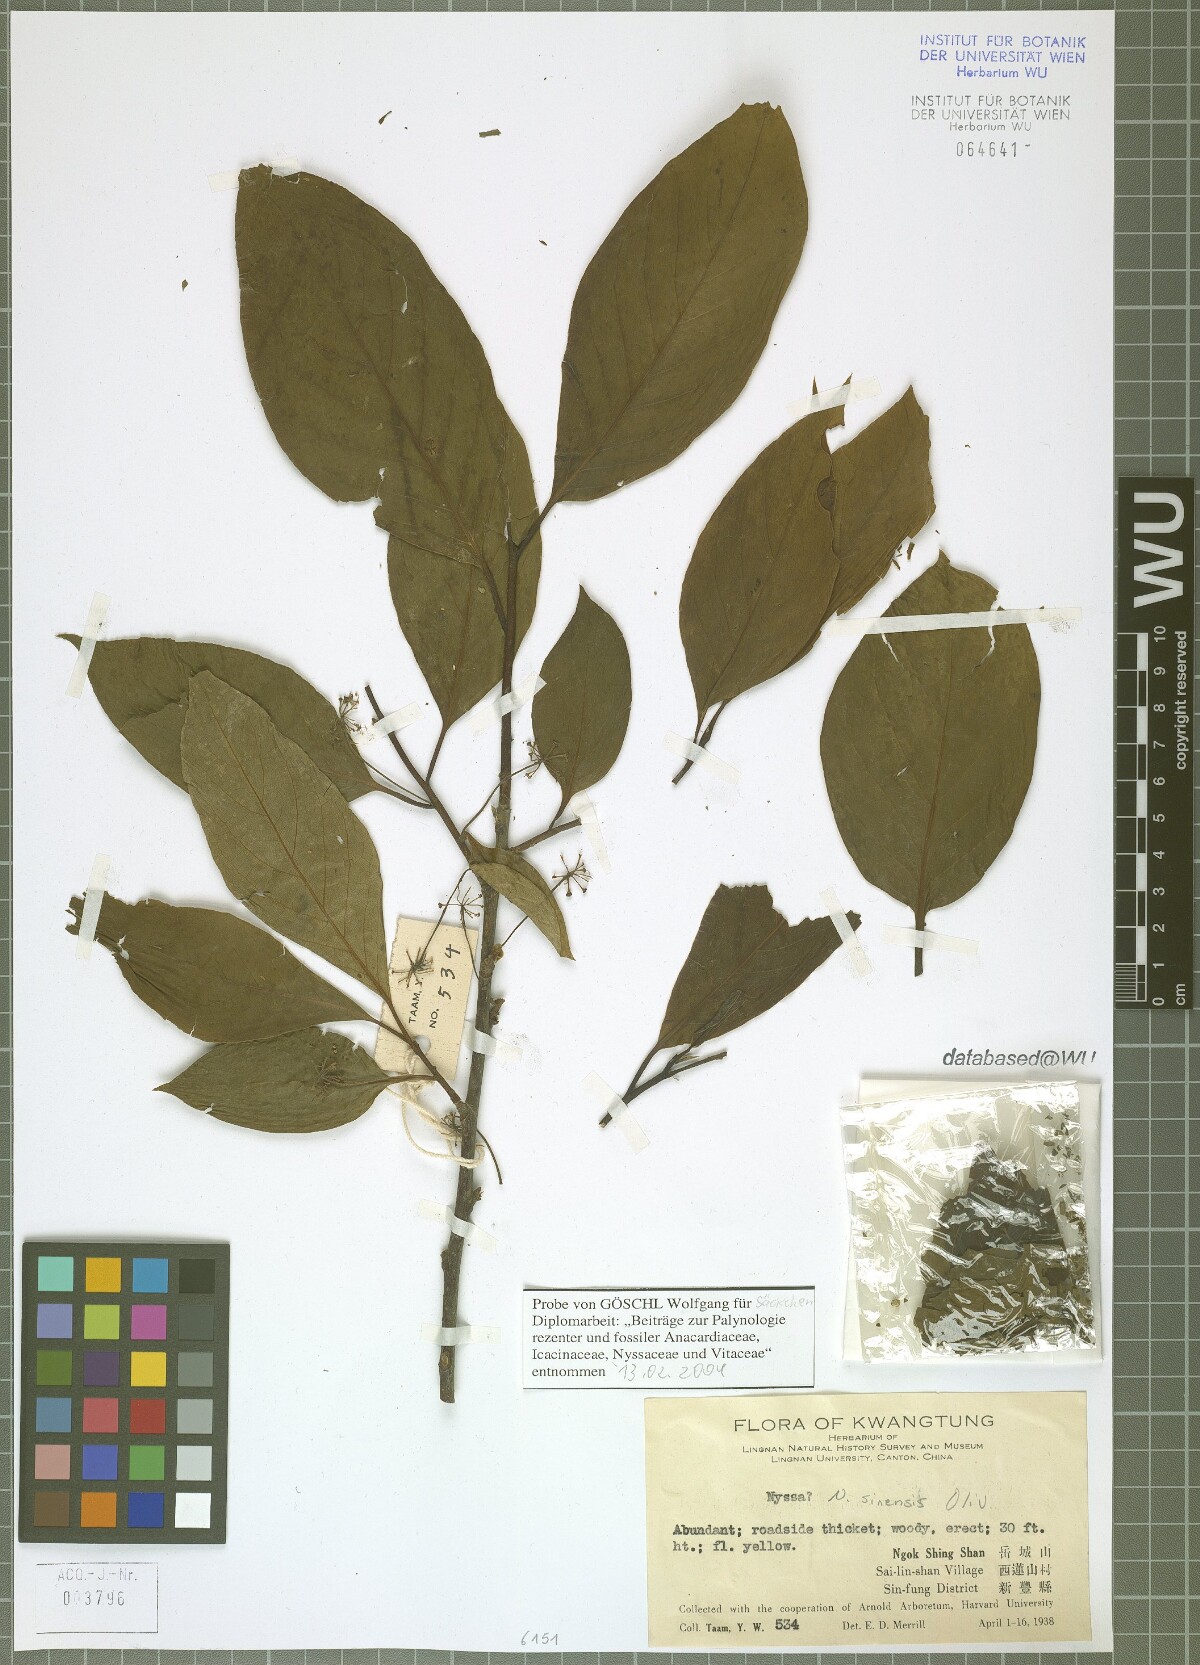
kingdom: Plantae
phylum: Tracheophyta
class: Magnoliopsida
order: Cornales
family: Nyssaceae
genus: Nyssa
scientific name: Nyssa sinensis
